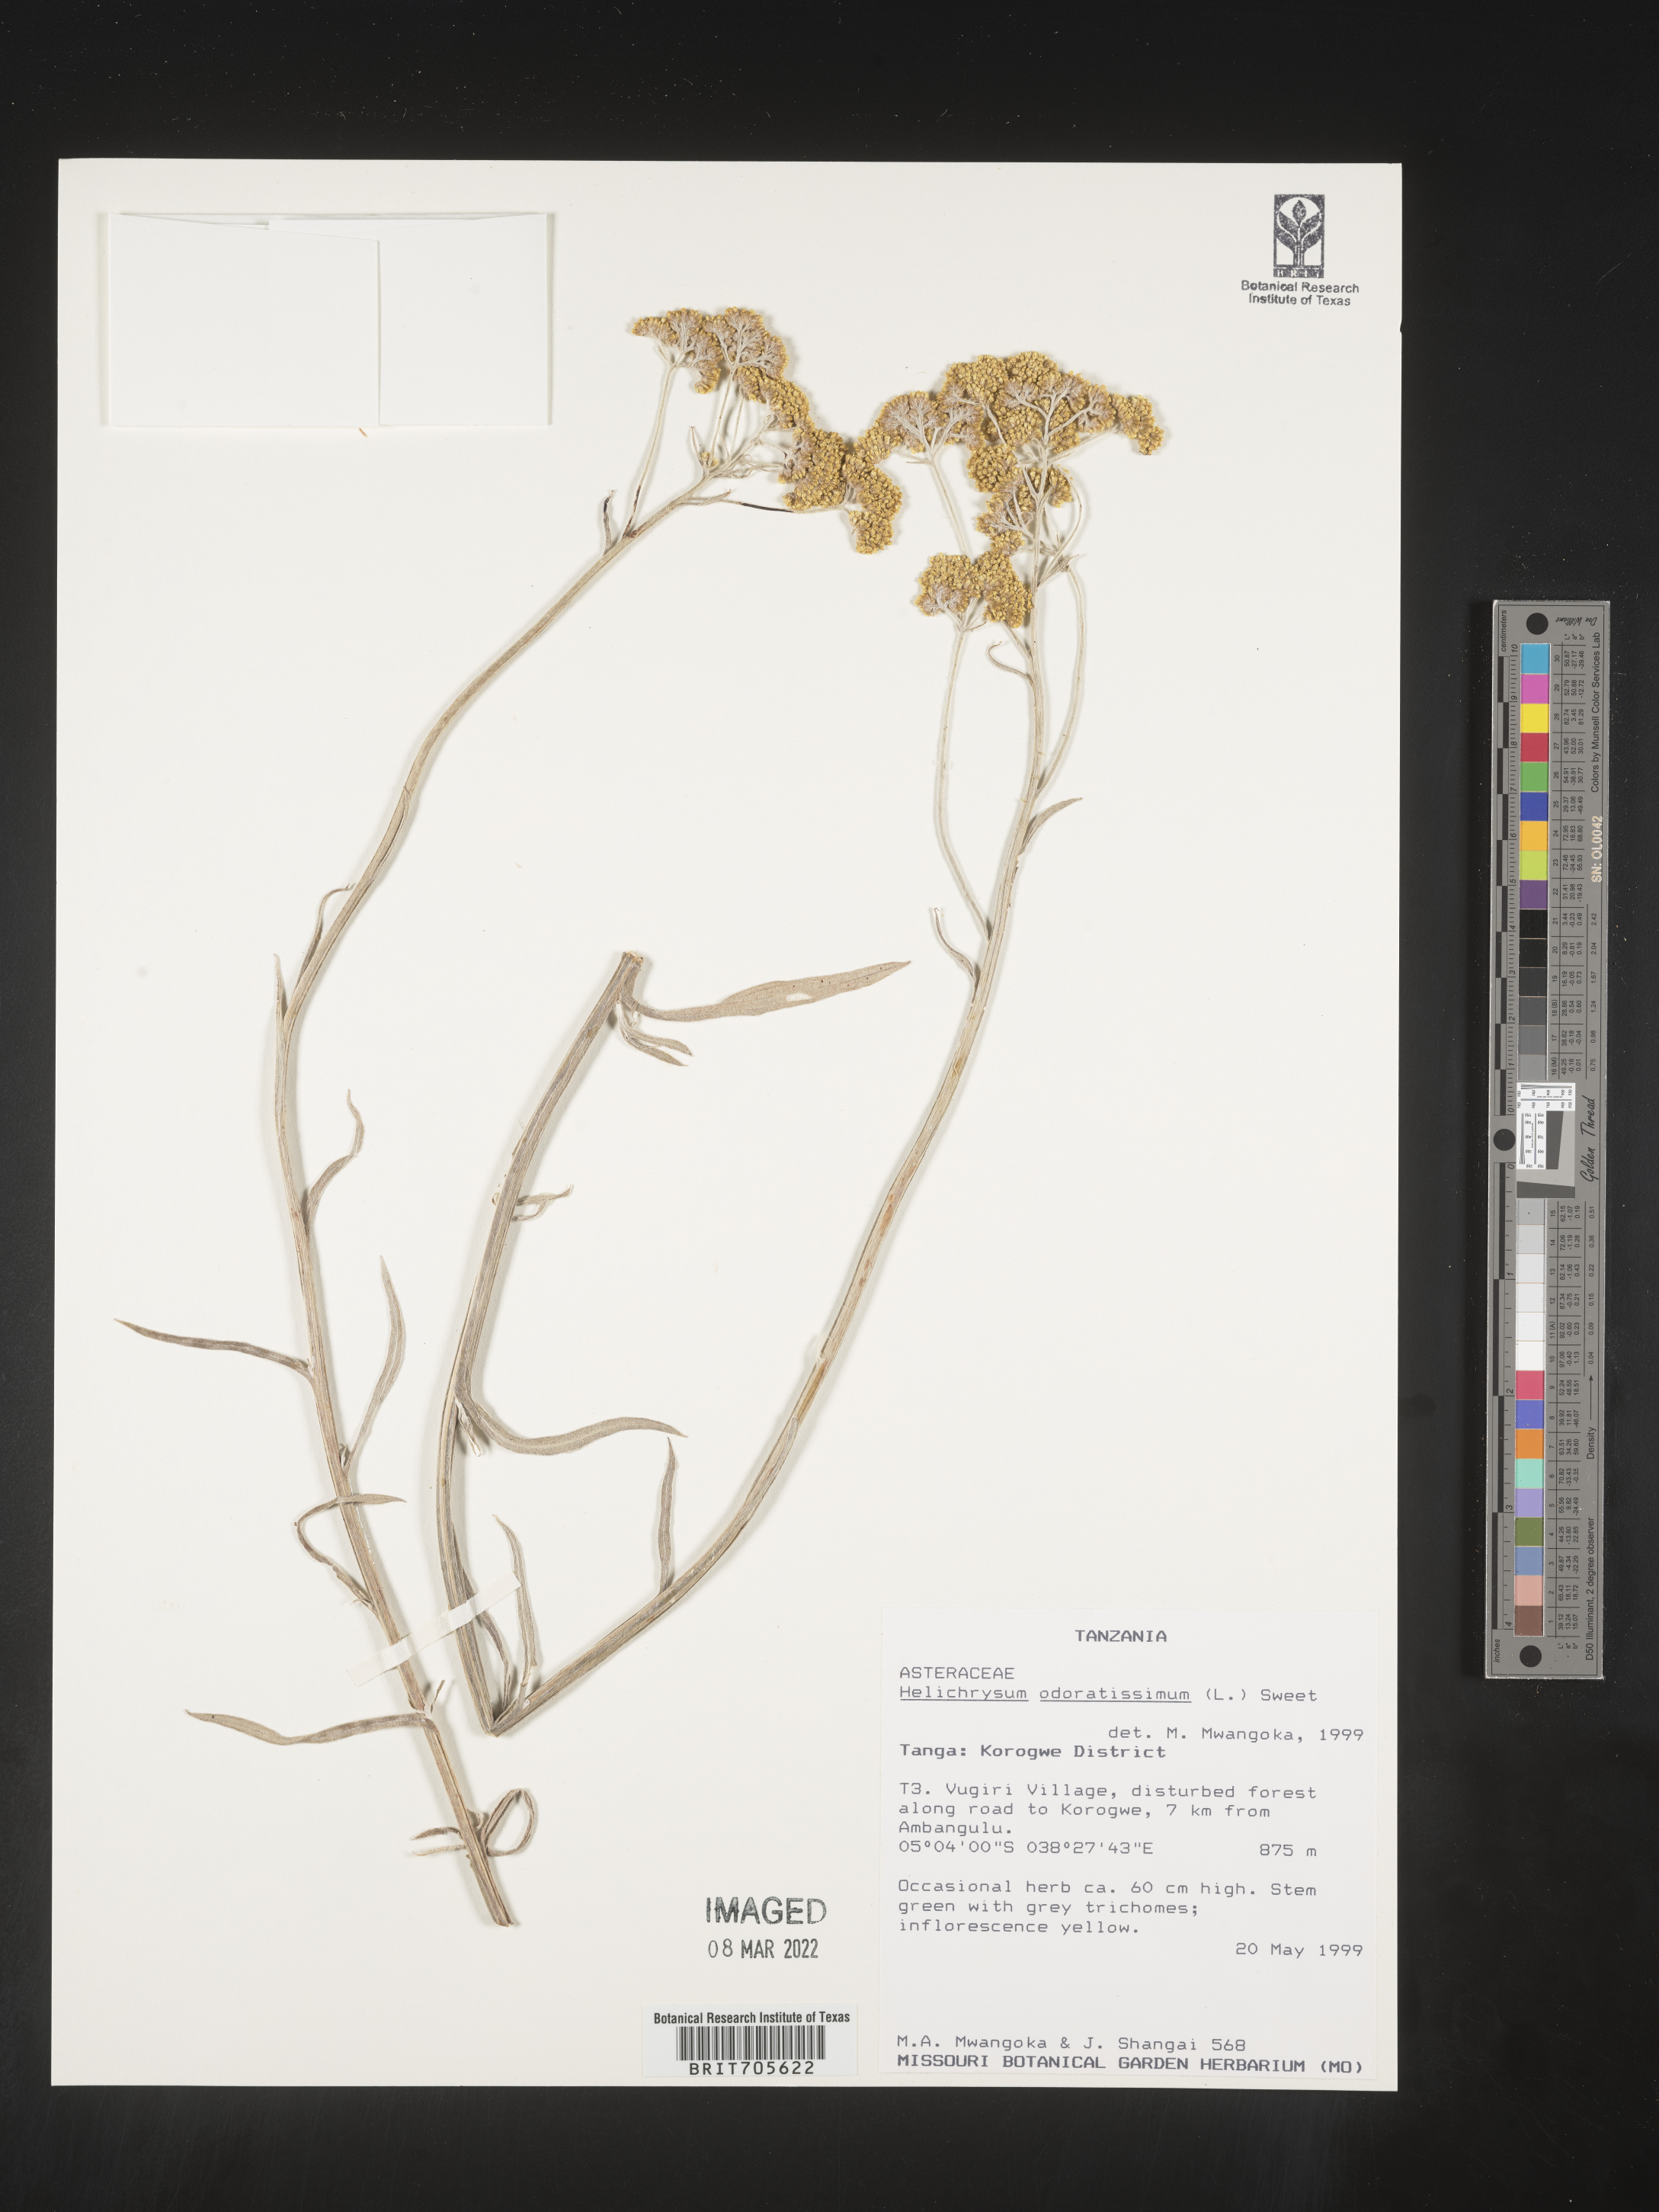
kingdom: Plantae
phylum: Tracheophyta
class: Magnoliopsida
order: Asterales
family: Asteraceae
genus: Helichrysum
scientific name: Helichrysum odoratissimum
